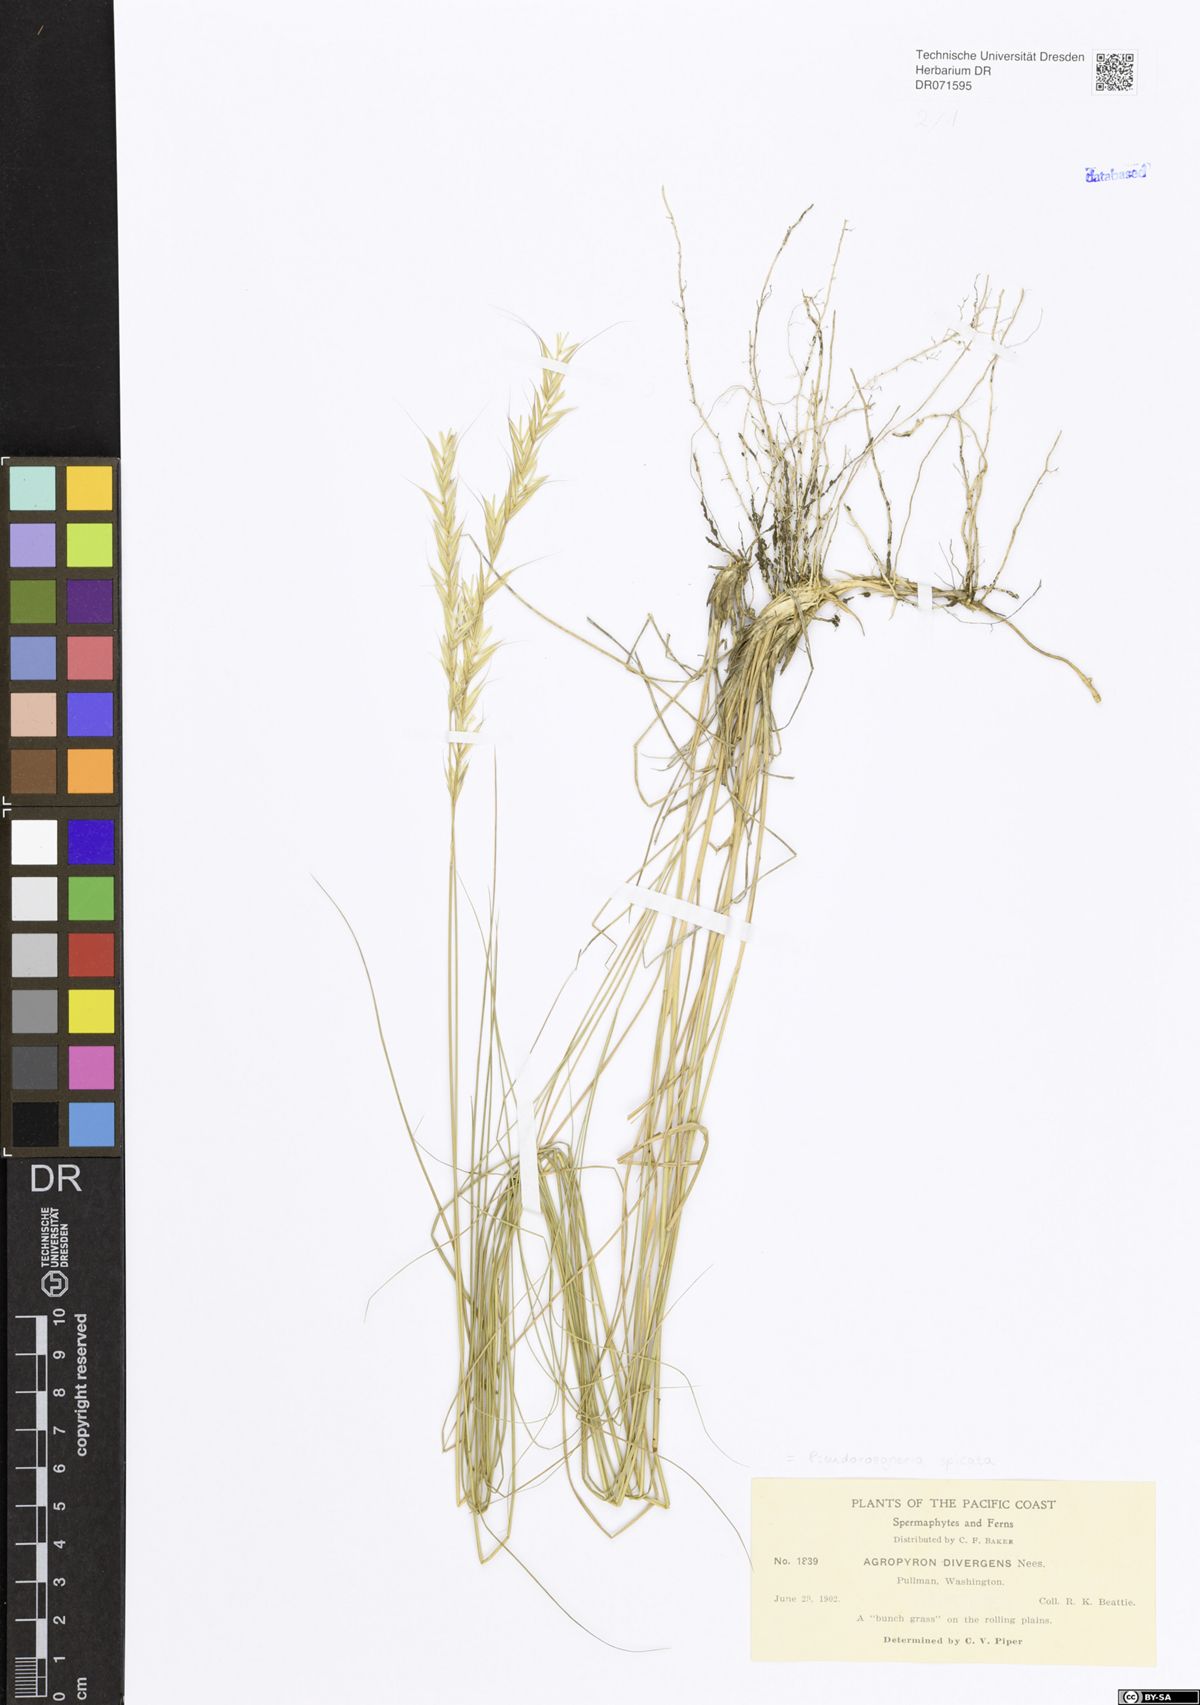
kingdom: Plantae
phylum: Tracheophyta
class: Liliopsida
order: Poales
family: Poaceae
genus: Pseudoroegneria
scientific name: Pseudoroegneria spicata
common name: Bluebunch wheatgrass
